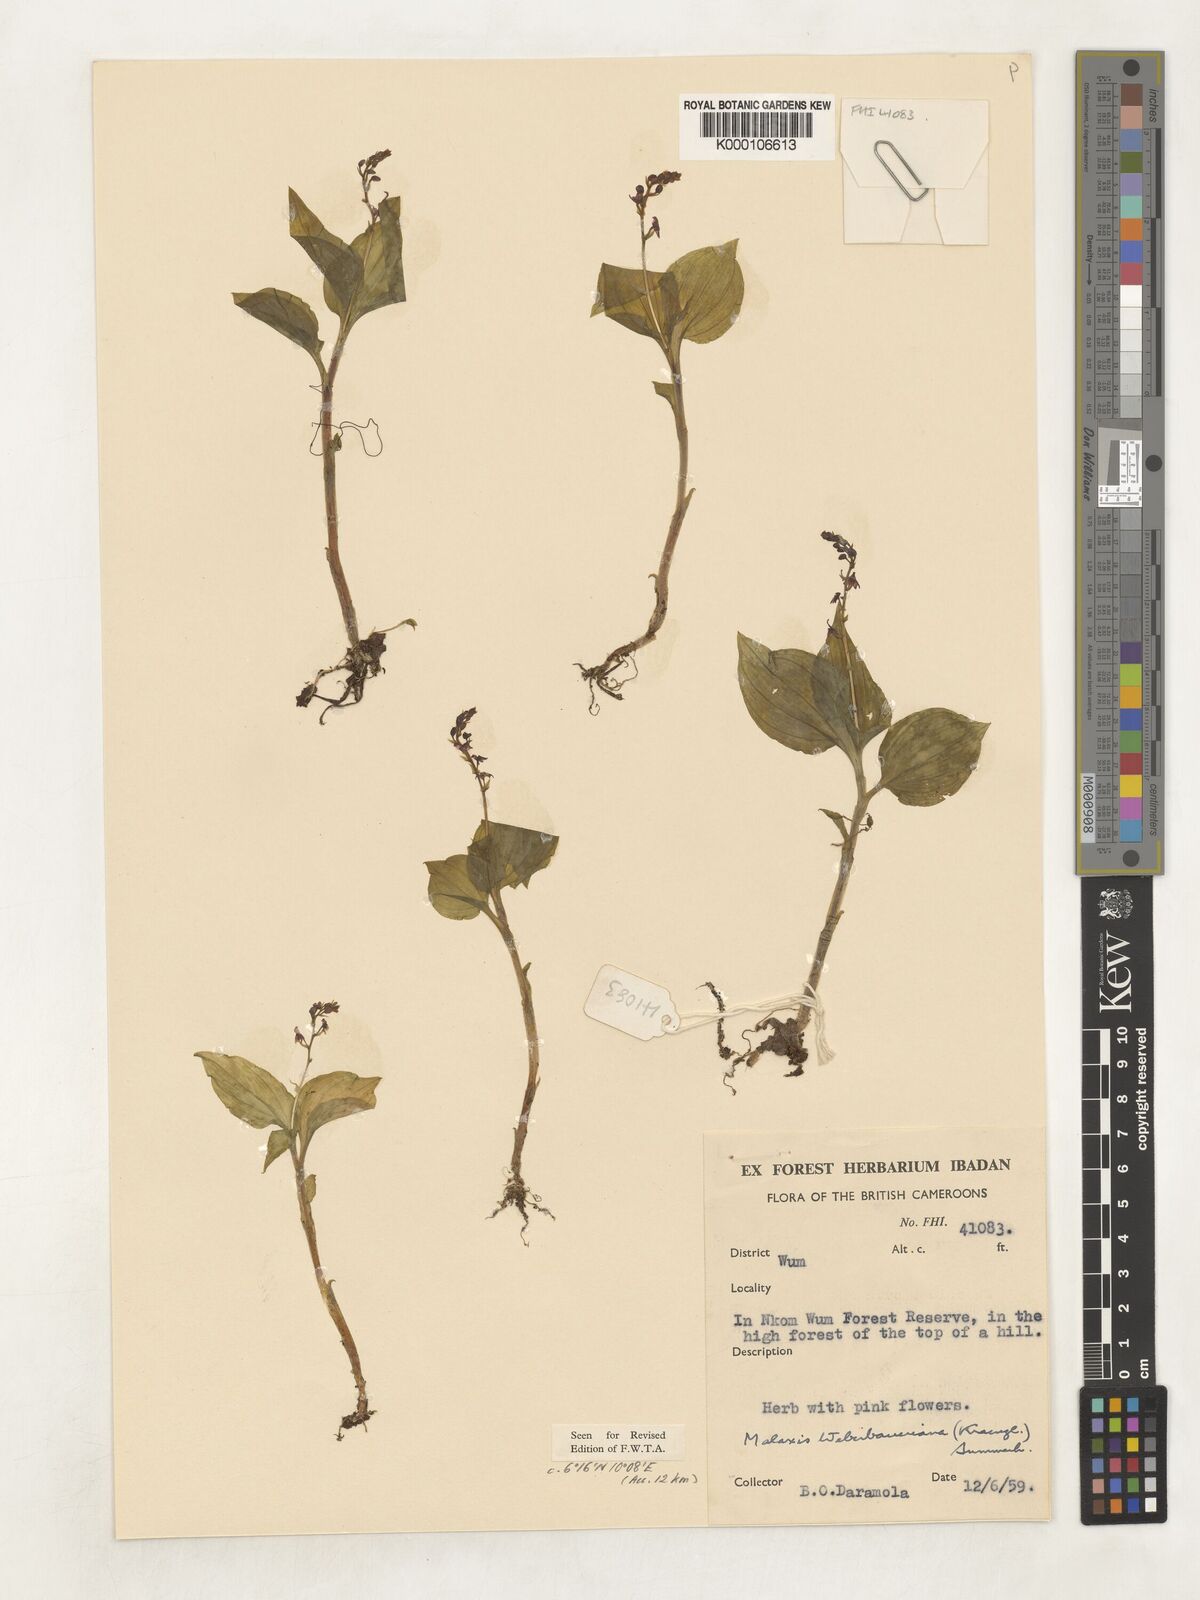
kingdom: Plantae
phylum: Tracheophyta
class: Liliopsida
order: Asparagales
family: Orchidaceae
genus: Malaxis
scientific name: Malaxis weberbaueriana
